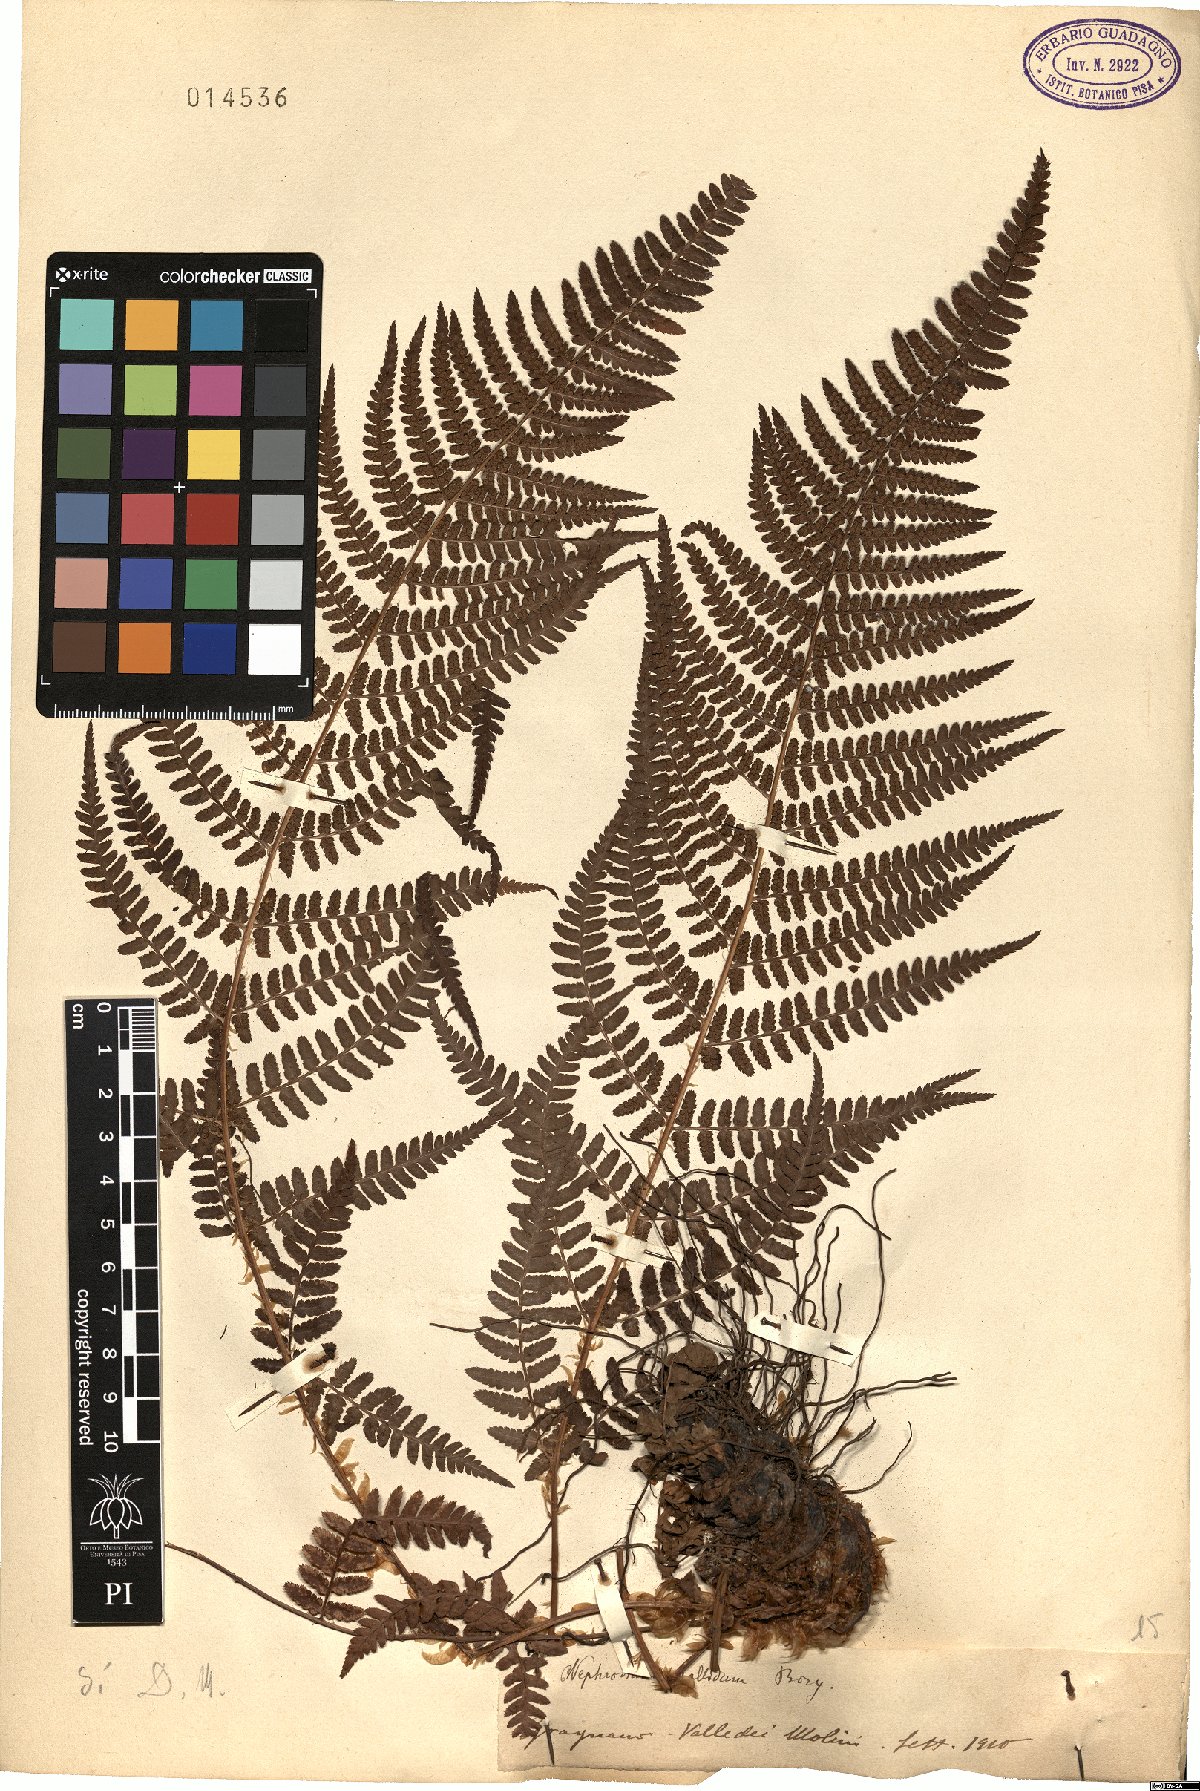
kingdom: Plantae
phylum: Tracheophyta
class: Polypodiopsida
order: Polypodiales
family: Dryopteridaceae
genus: Dryopteris
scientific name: Dryopteris pallida
